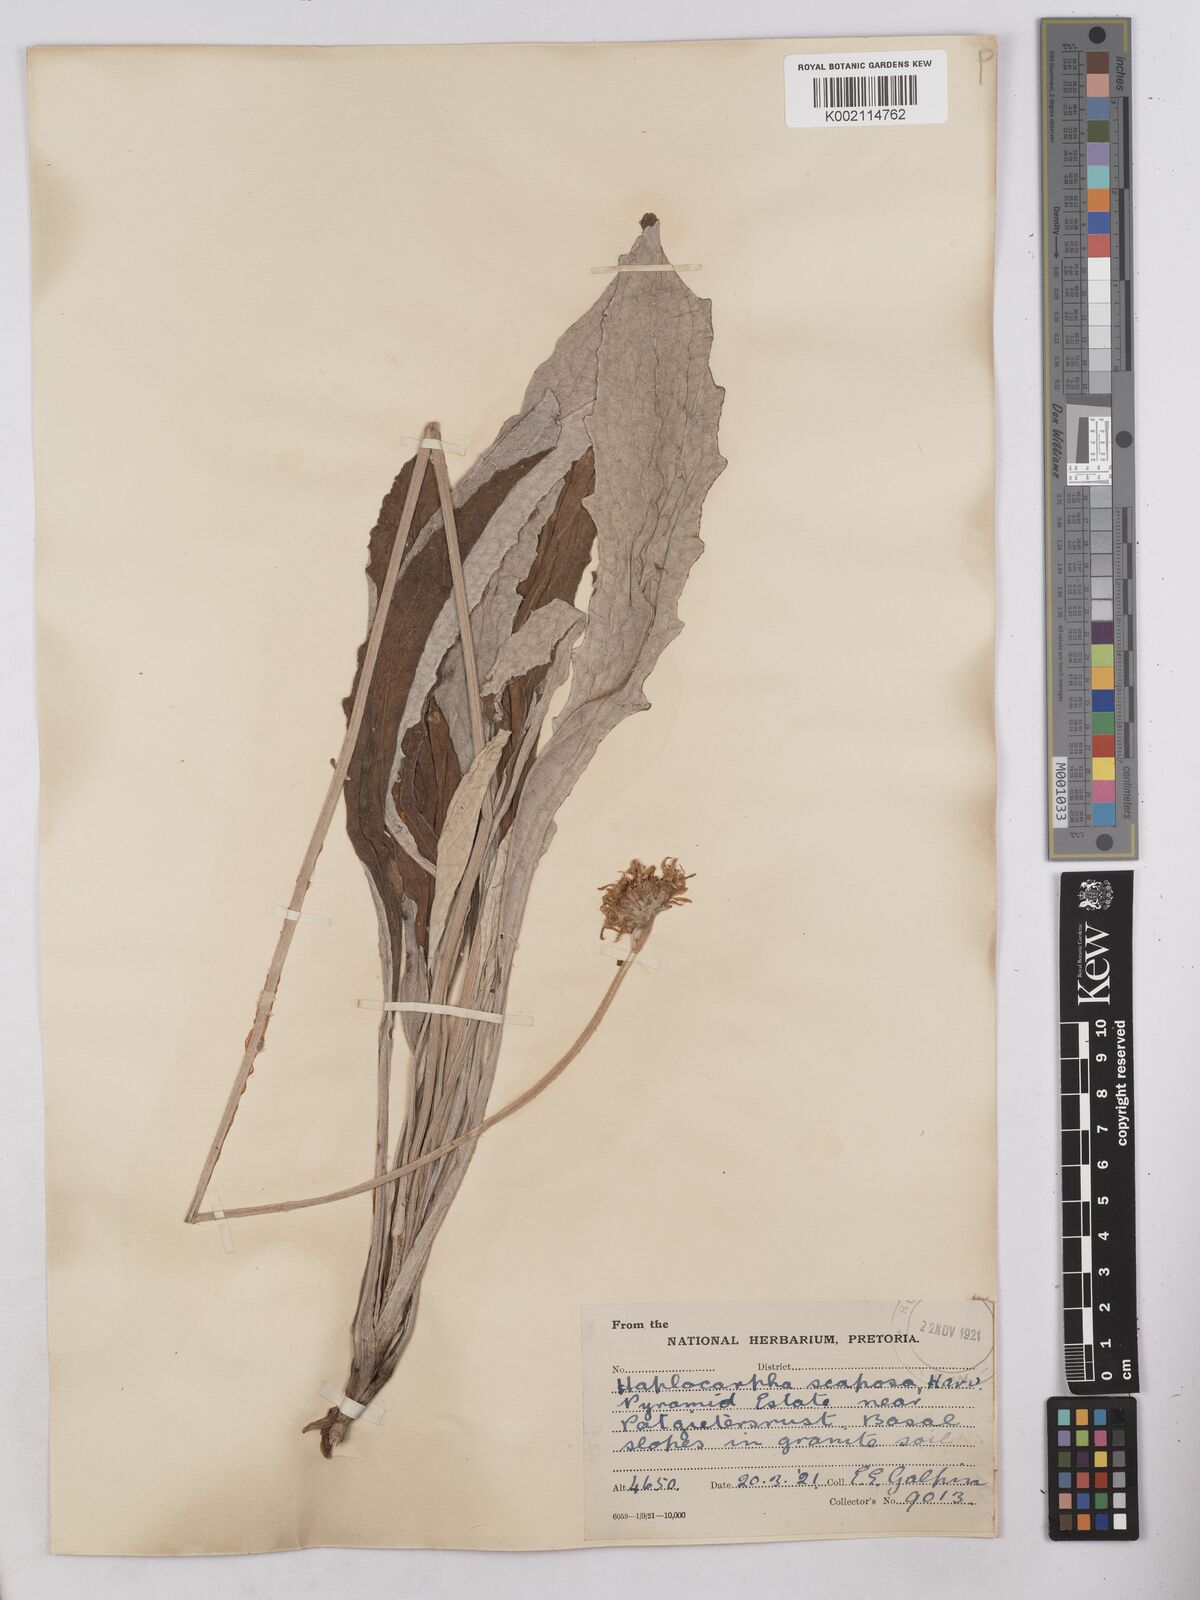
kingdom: Plantae
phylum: Tracheophyta
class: Magnoliopsida
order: Asterales
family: Asteraceae
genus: Haplocarpha
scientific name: Haplocarpha scaposa
